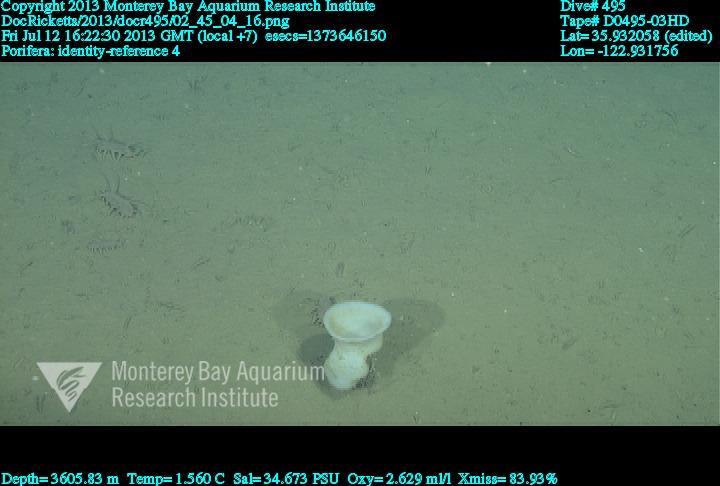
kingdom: Animalia
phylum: Porifera
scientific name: Porifera
